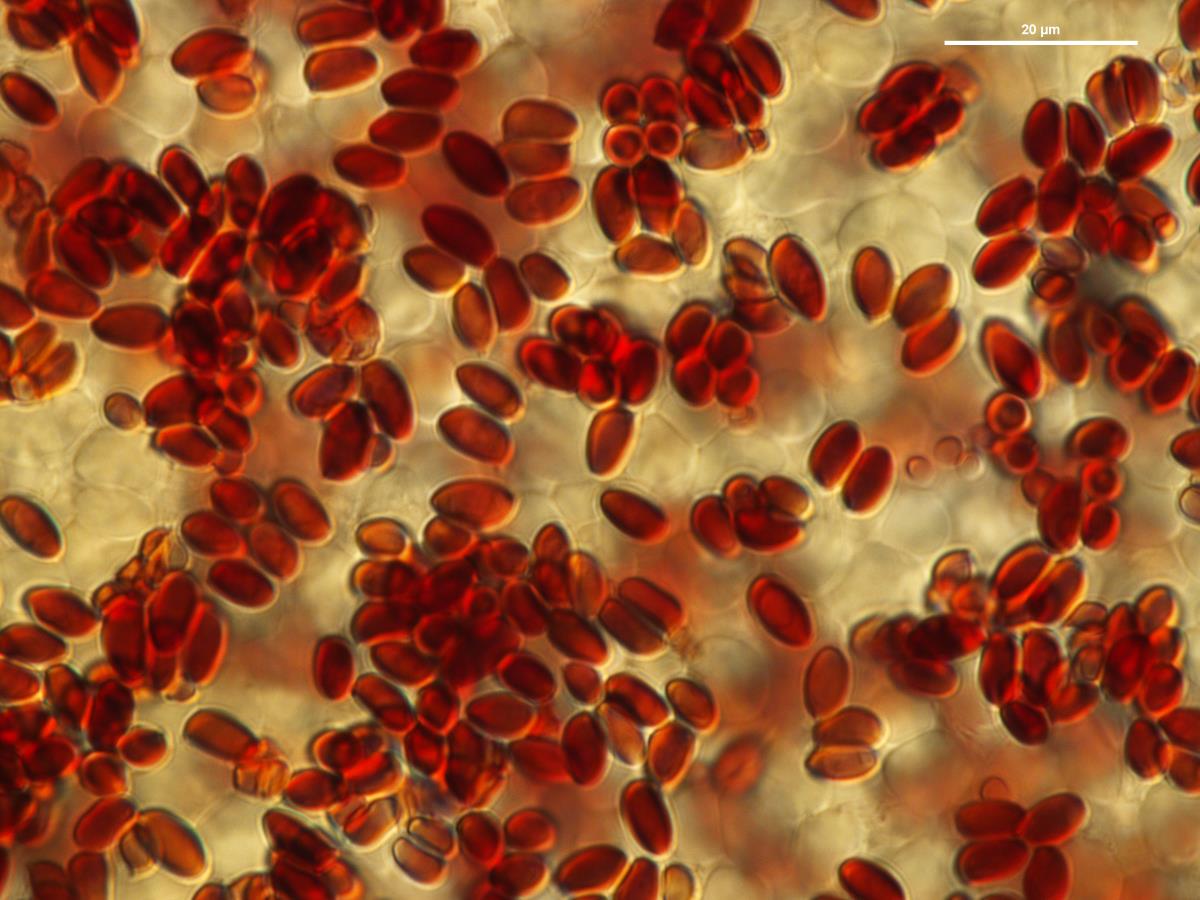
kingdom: Fungi
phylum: Basidiomycota
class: Agaricomycetes
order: Agaricales
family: Agaricaceae
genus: Leucoagaricus
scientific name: Leucoagaricus
